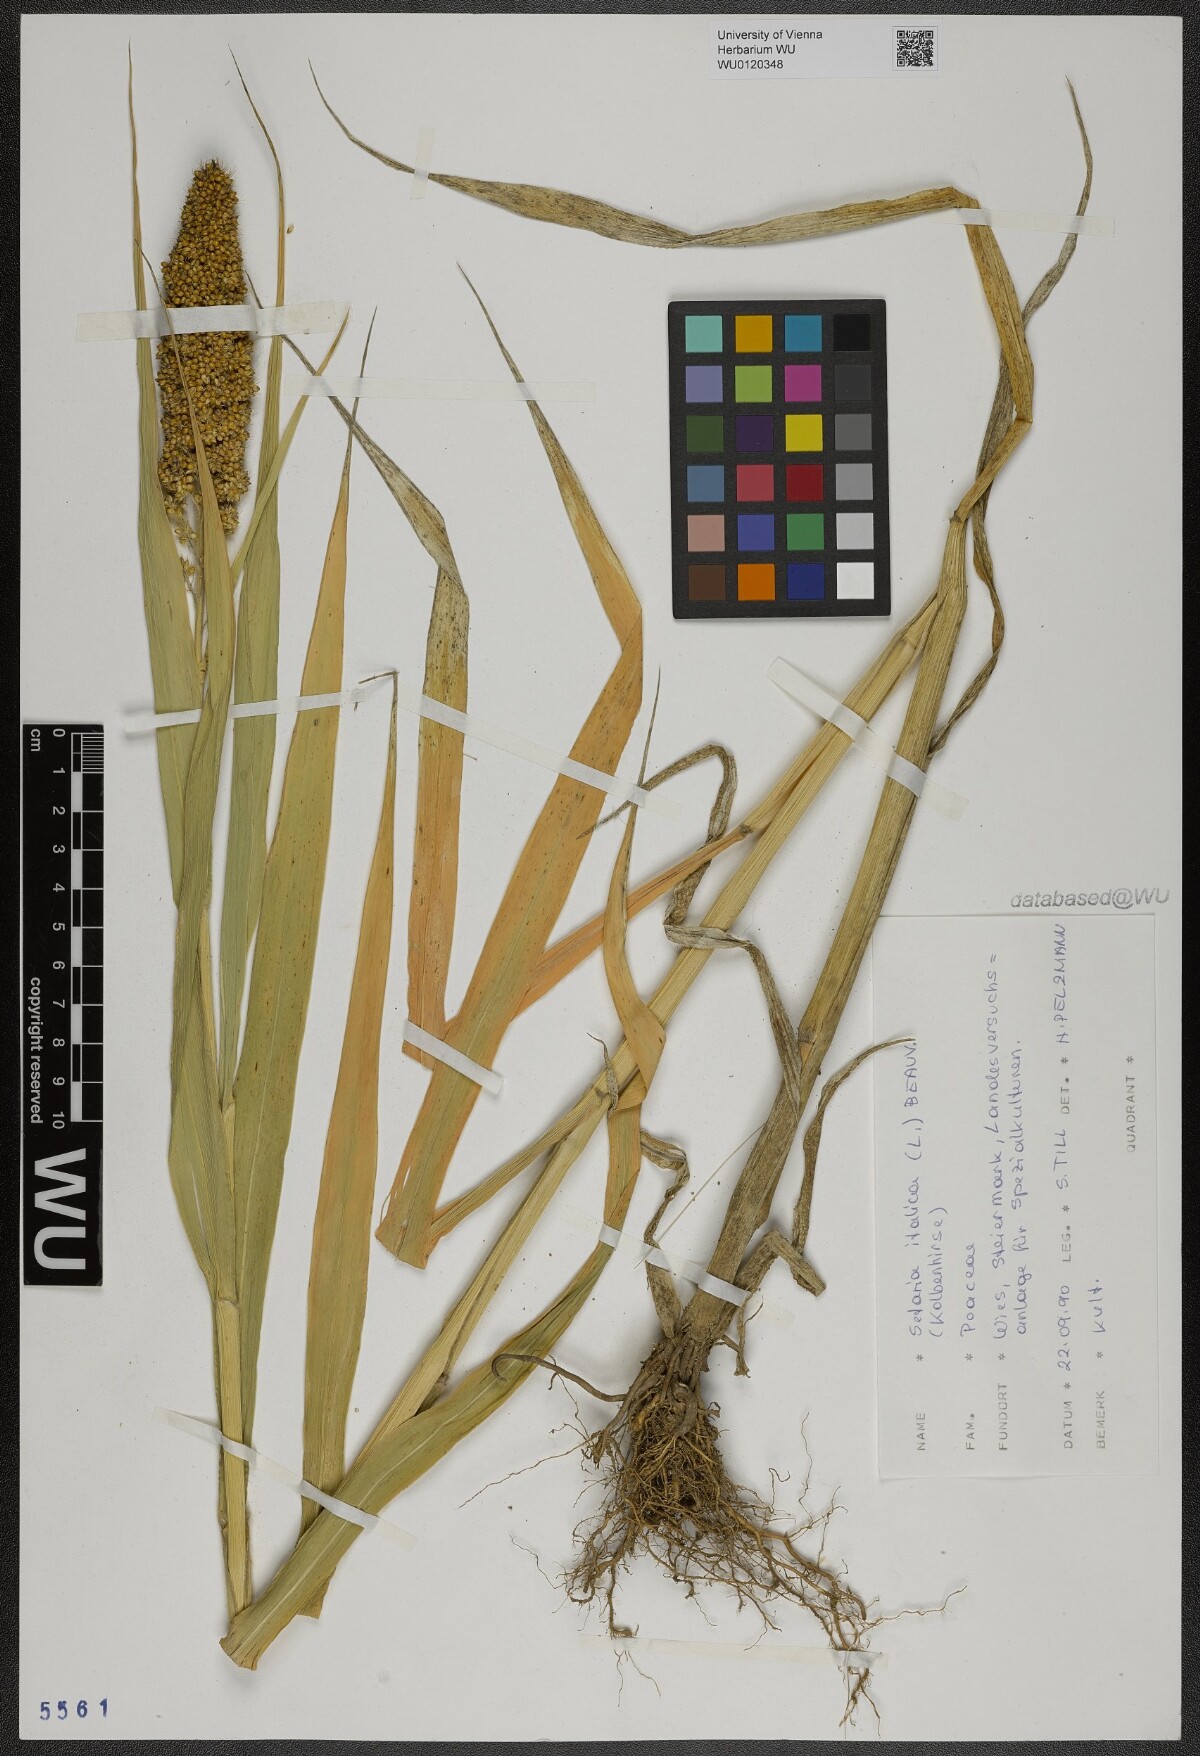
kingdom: Plantae
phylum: Tracheophyta
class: Liliopsida
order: Poales
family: Poaceae
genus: Setaria
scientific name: Setaria italica
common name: Foxtail bristle-grass
